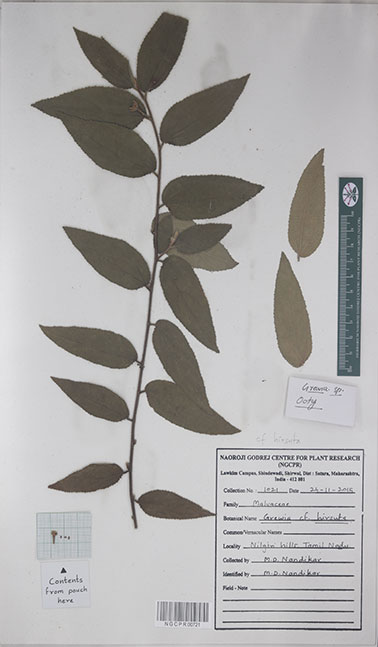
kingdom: Plantae
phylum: Tracheophyta
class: Magnoliopsida
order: Malvales
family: Malvaceae
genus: Grewia
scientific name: Grewia hirsuta
